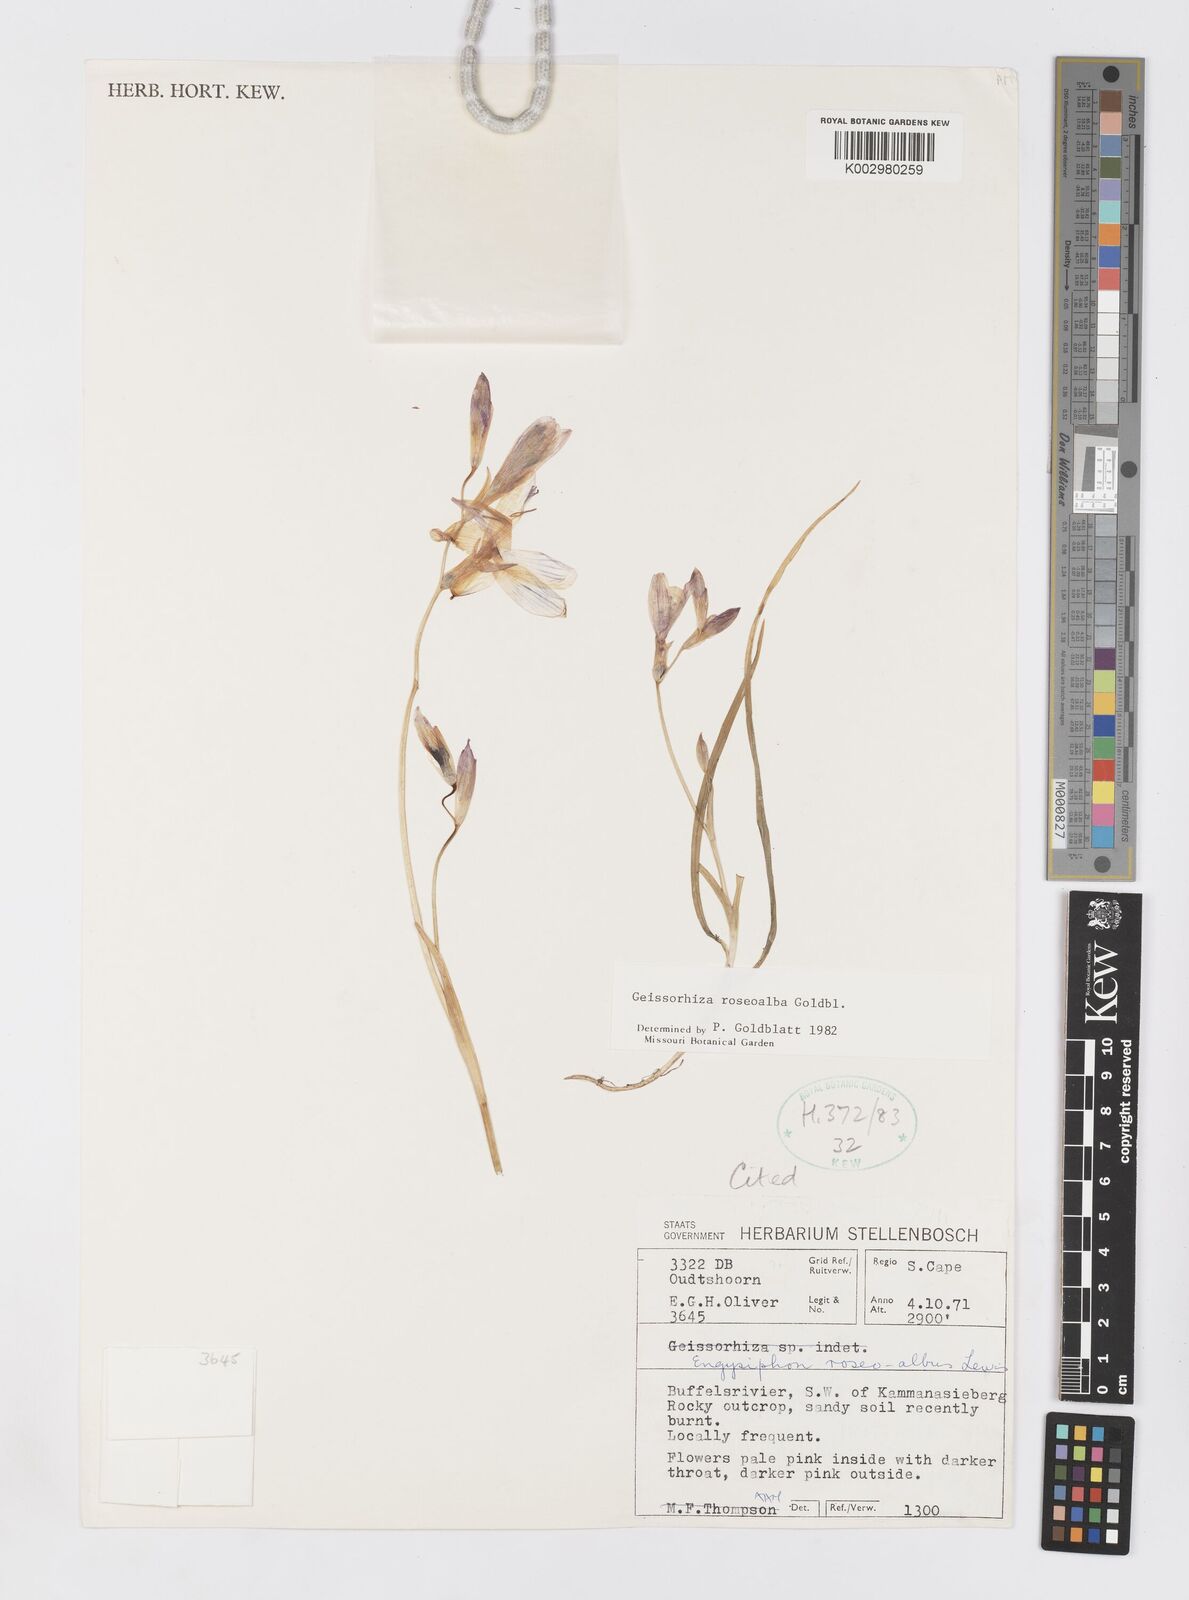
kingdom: Plantae
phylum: Tracheophyta
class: Liliopsida
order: Asparagales
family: Iridaceae
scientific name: Iridaceae
